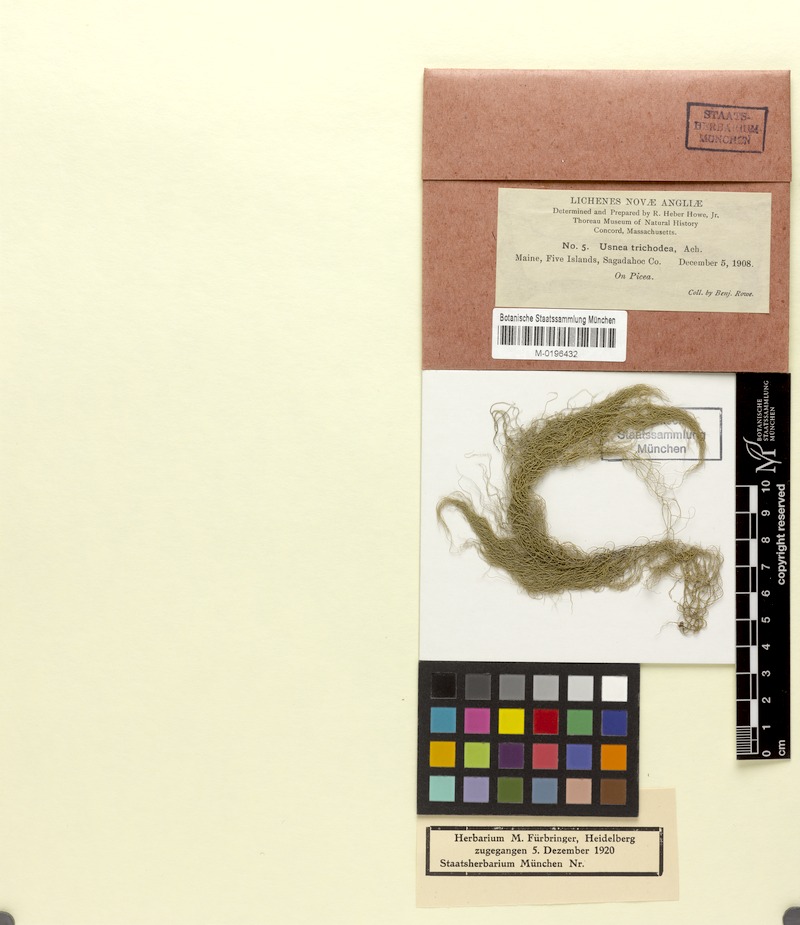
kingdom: Fungi
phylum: Ascomycota
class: Lecanoromycetes
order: Lecanorales
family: Parmeliaceae
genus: Usnea
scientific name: Usnea trichodea
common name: Bony beard lichen
